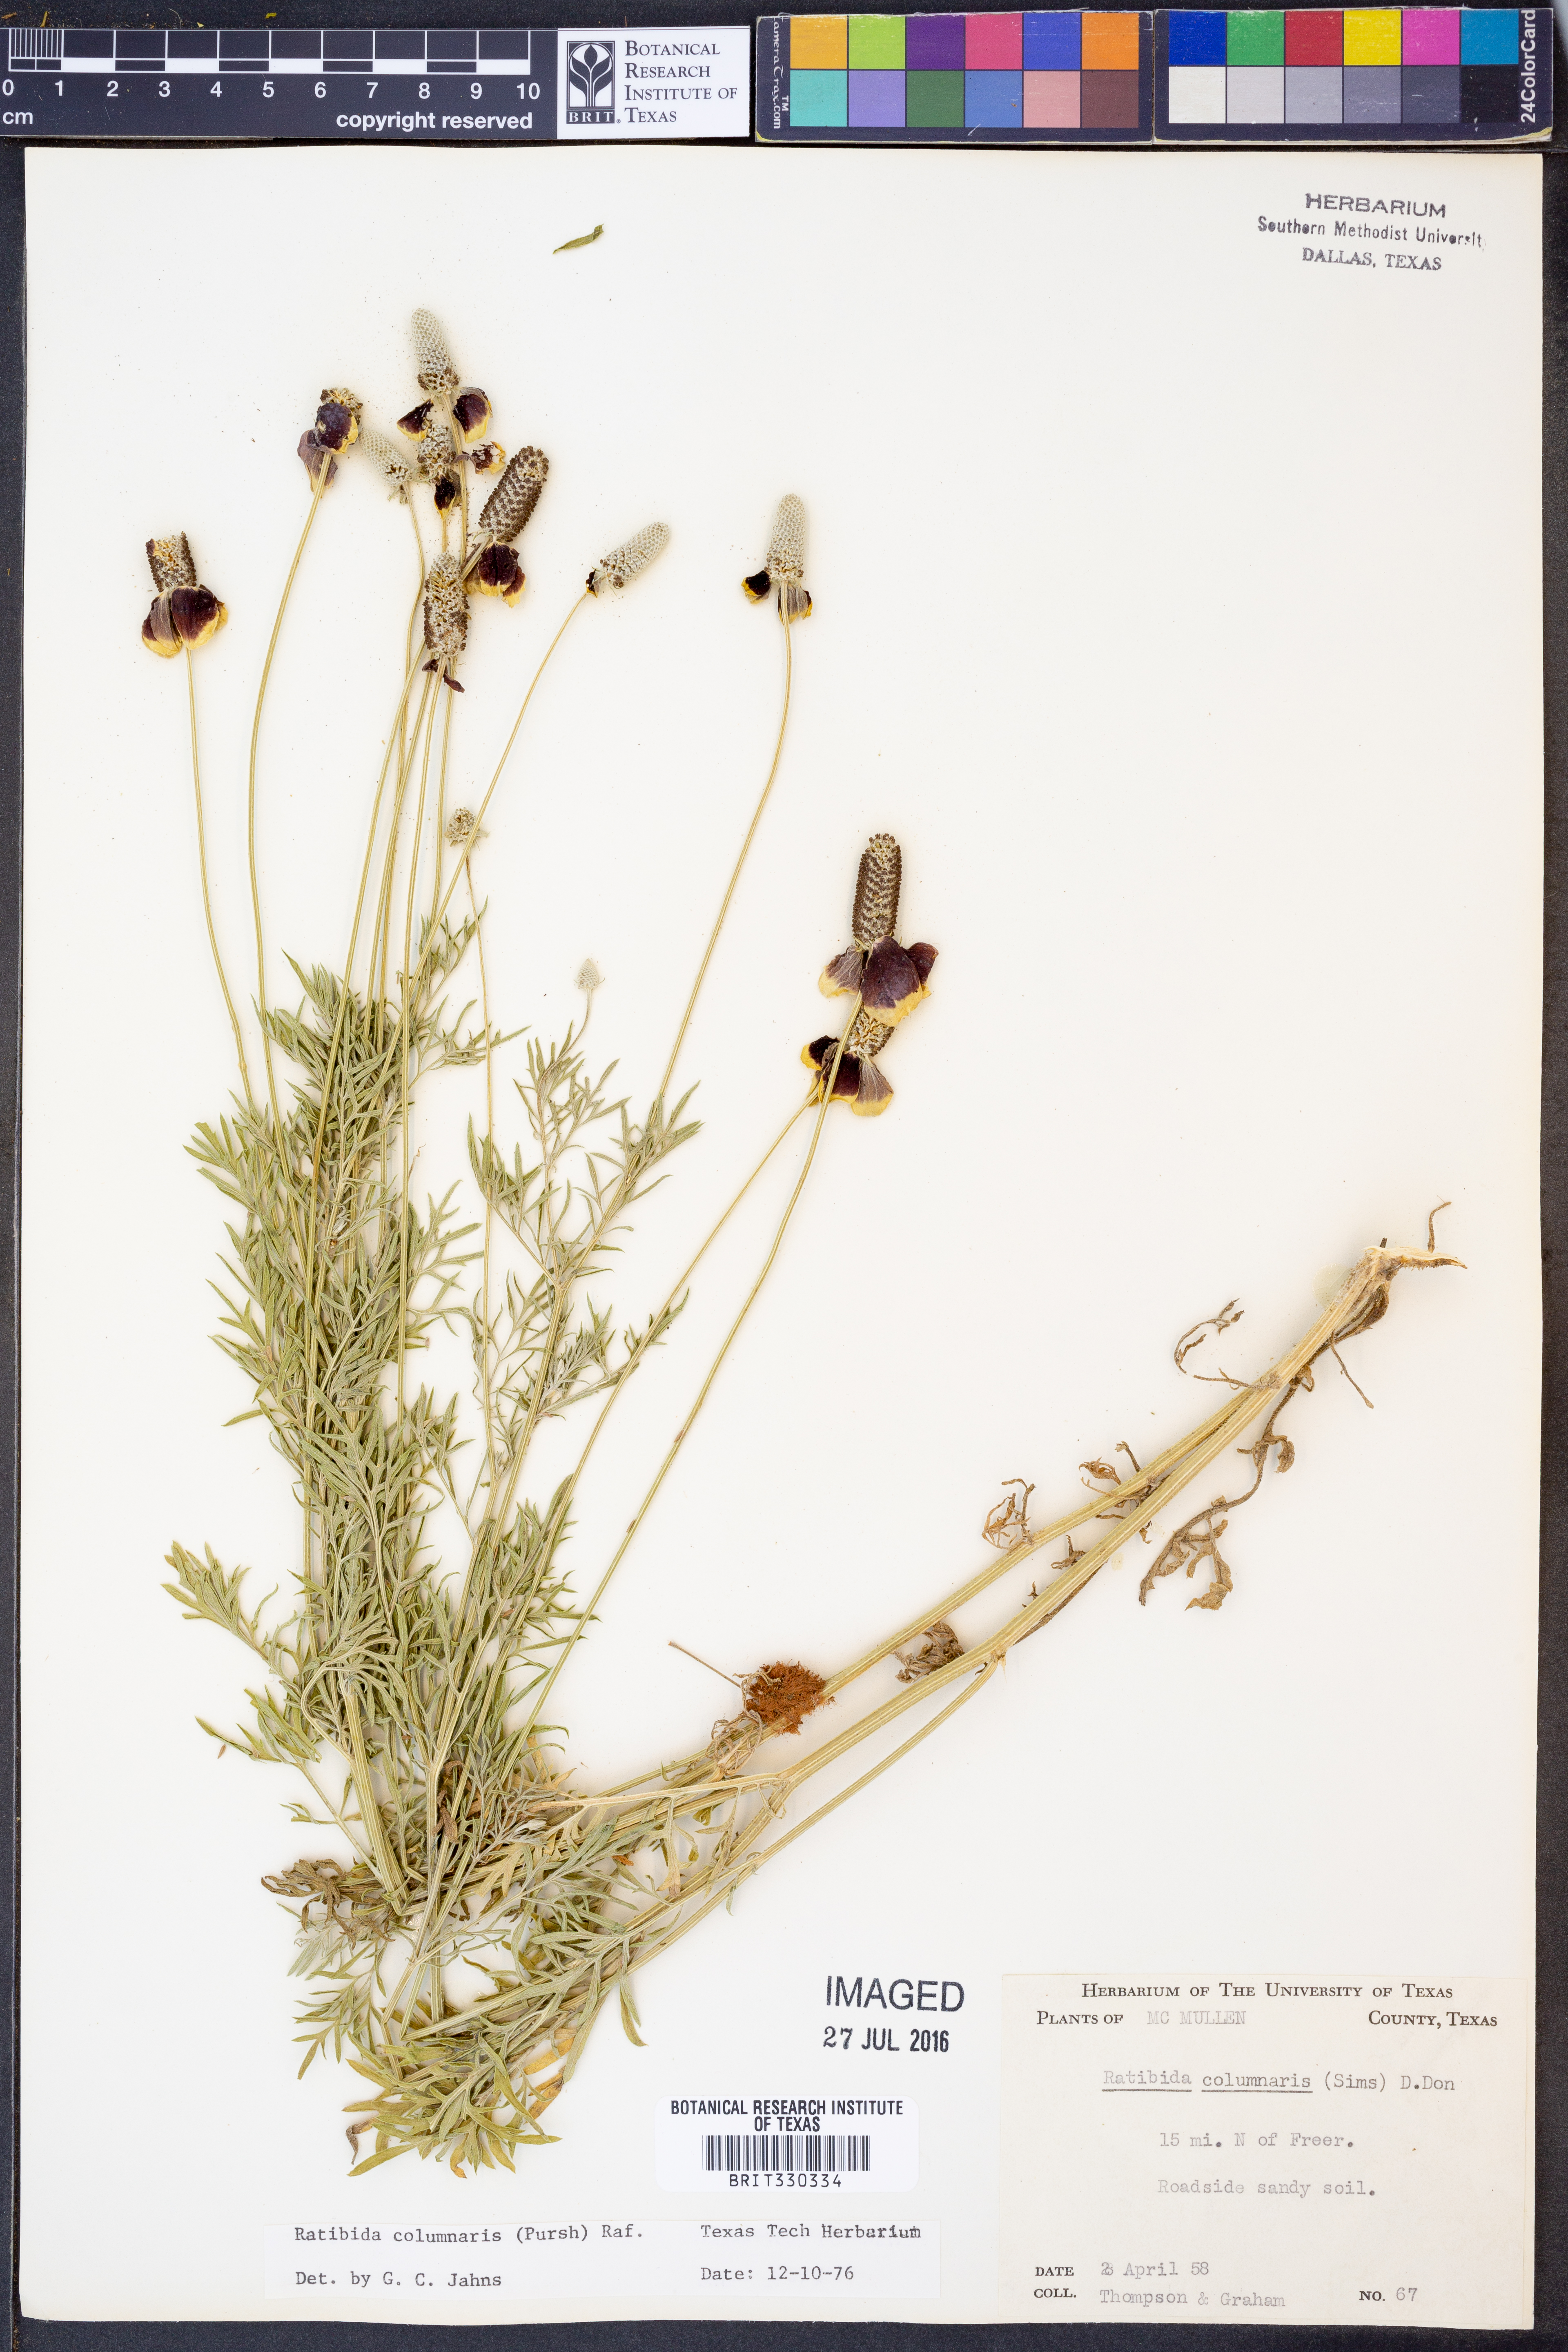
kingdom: Plantae
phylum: Tracheophyta
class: Magnoliopsida
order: Asterales
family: Asteraceae
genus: Ratibida
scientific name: Ratibida columnifera
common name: Prairie coneflower
